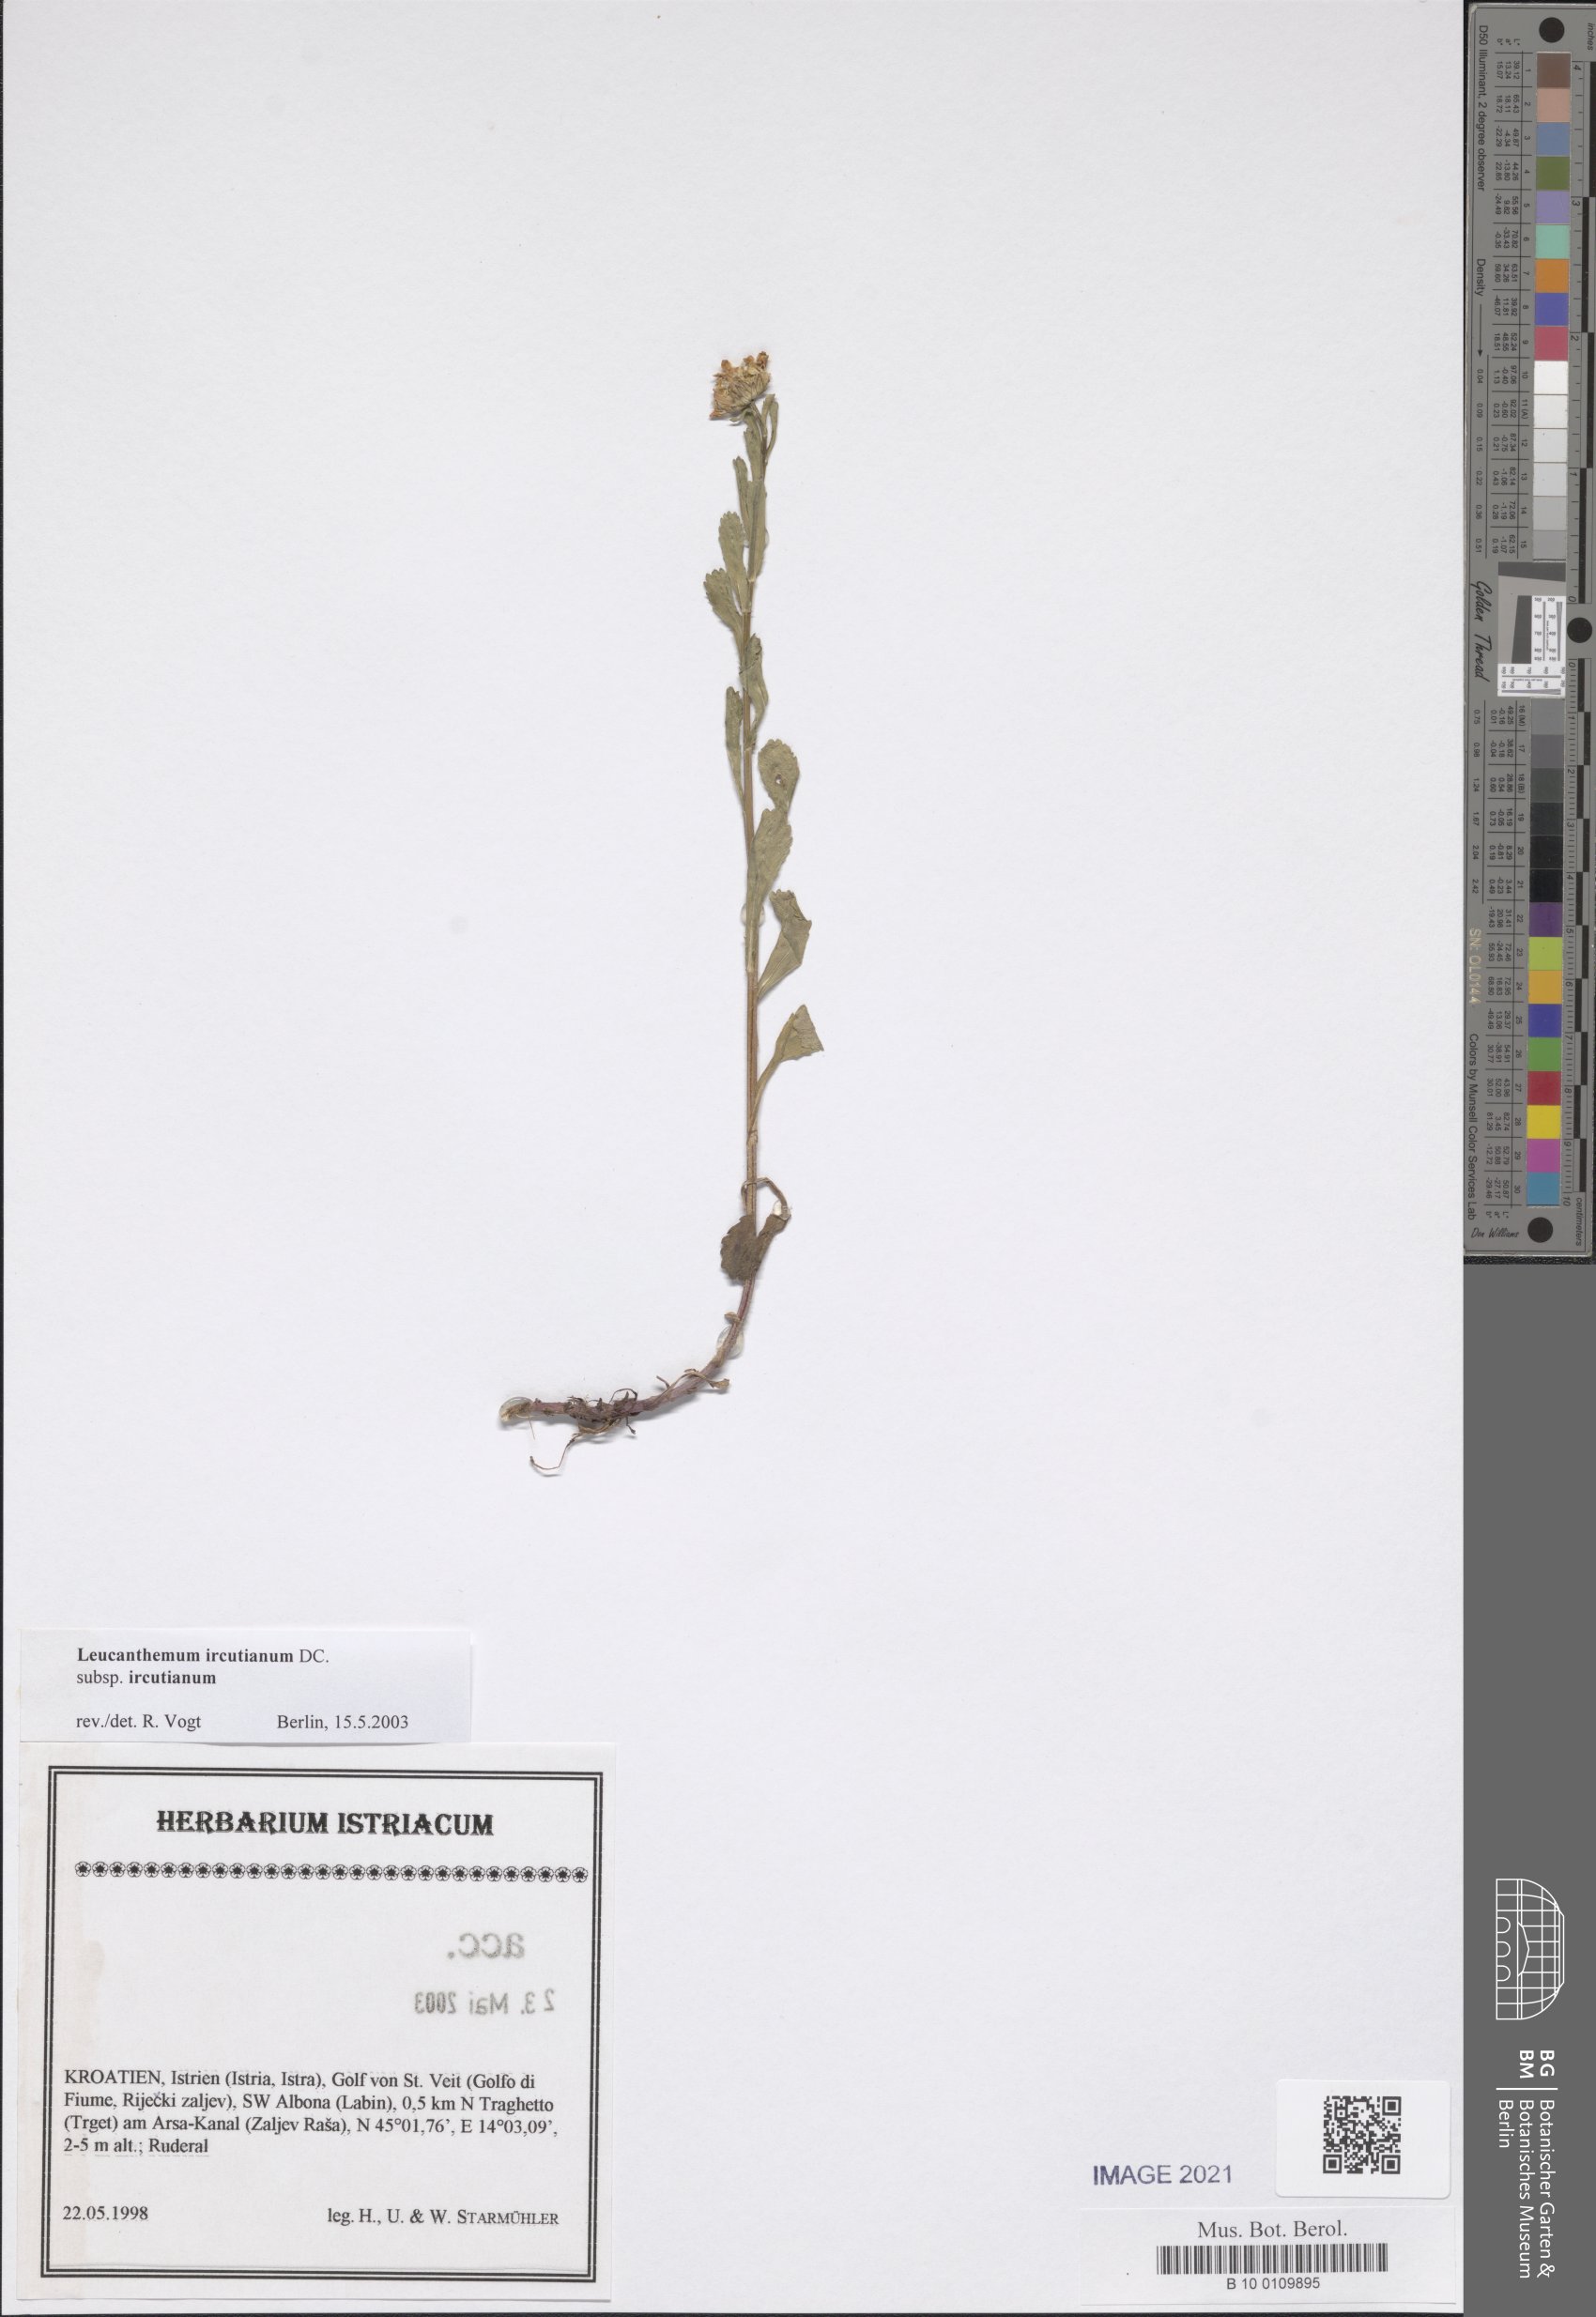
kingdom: Plantae
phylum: Tracheophyta
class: Magnoliopsida
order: Asterales
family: Asteraceae
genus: Leucanthemum
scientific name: Leucanthemum ircutianum
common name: Daisy
